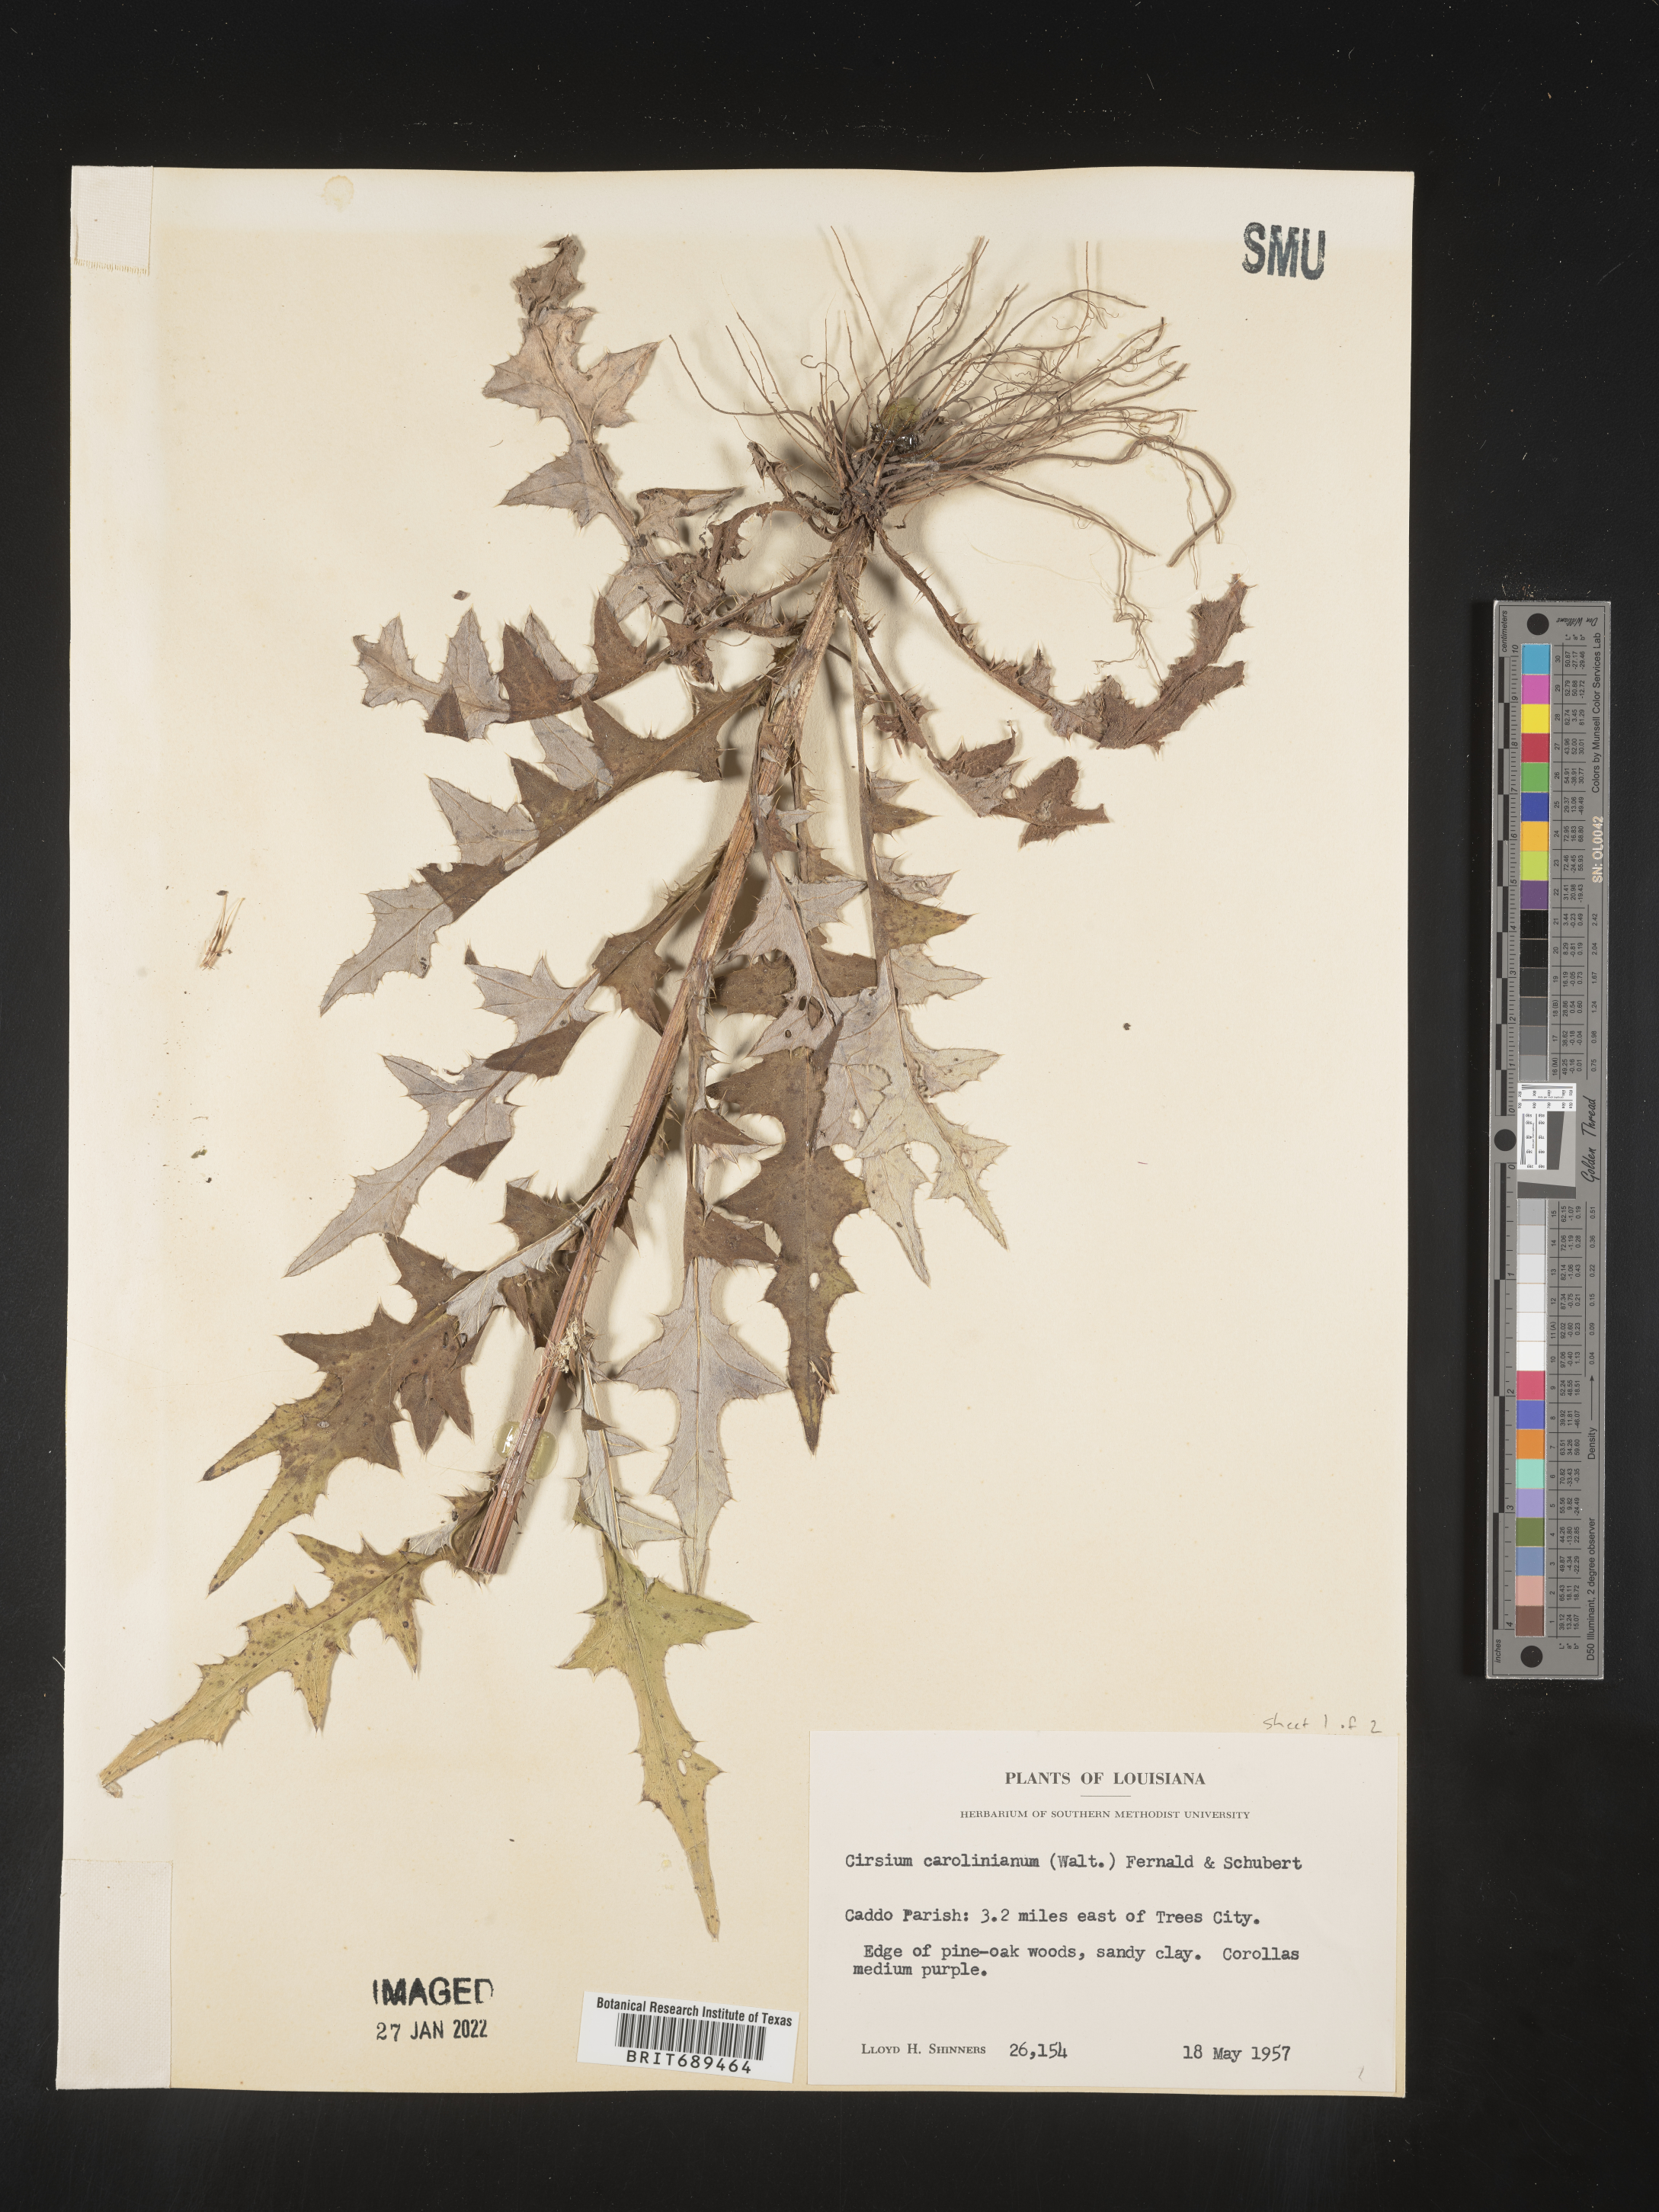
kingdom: Plantae
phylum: Tracheophyta
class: Magnoliopsida
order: Asterales
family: Asteraceae
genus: Cirsium
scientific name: Cirsium carolinianum
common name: Carolina thistle
